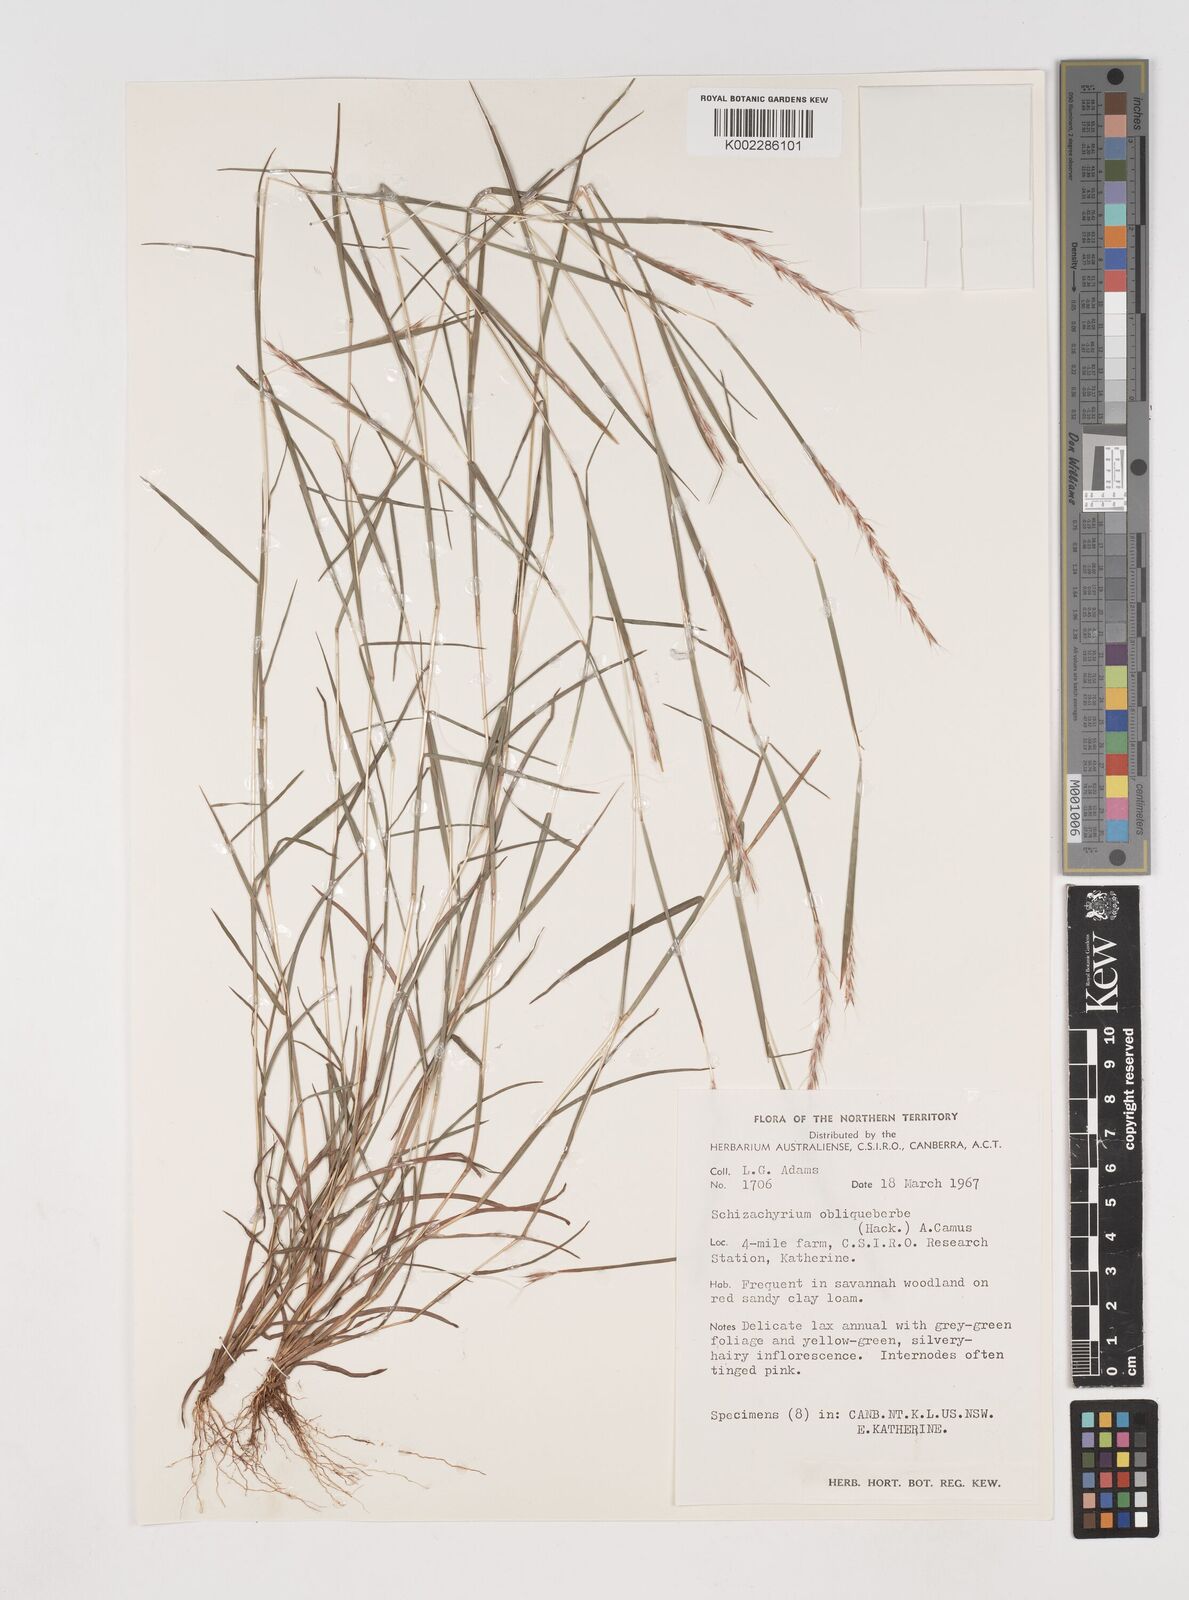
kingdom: Plantae
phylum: Tracheophyta
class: Liliopsida
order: Poales
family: Poaceae
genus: Schizachyrium
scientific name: Schizachyrium fragile
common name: Red spathe grass
